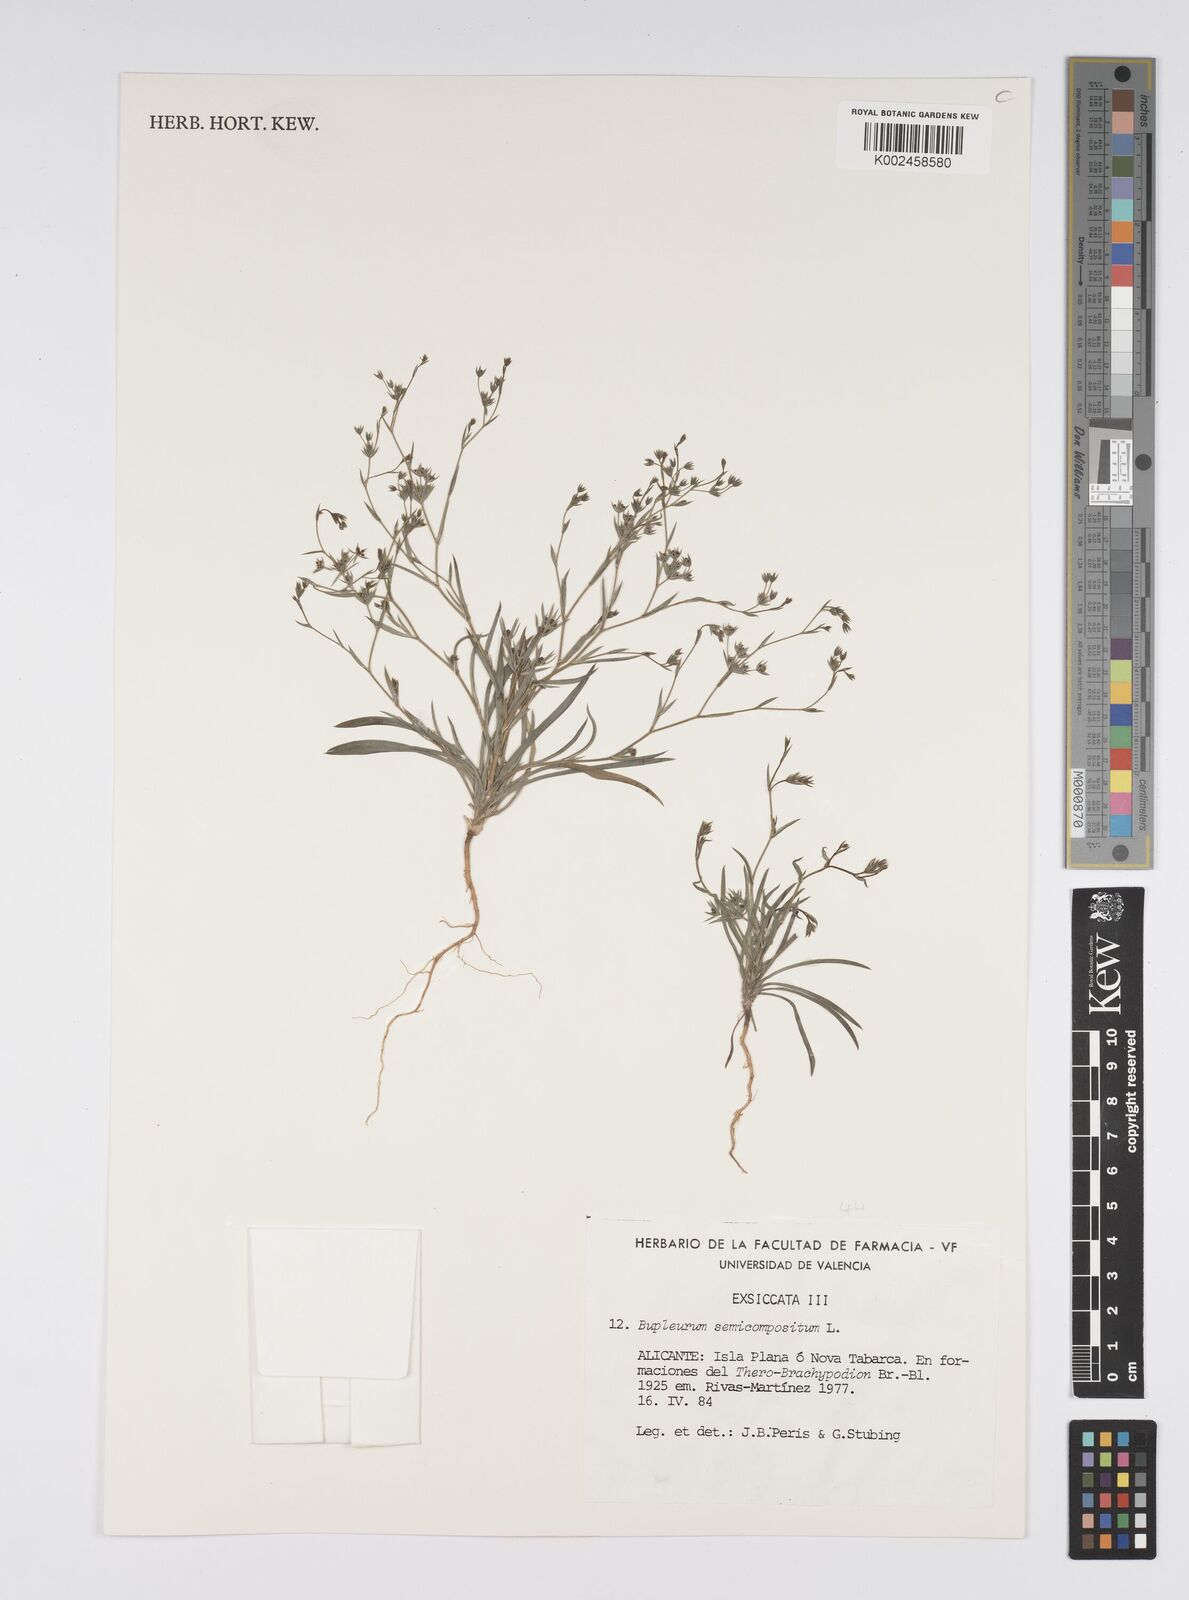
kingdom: Plantae
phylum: Tracheophyta
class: Magnoliopsida
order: Apiales
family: Apiaceae
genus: Bupleurum
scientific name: Bupleurum semicompositum
